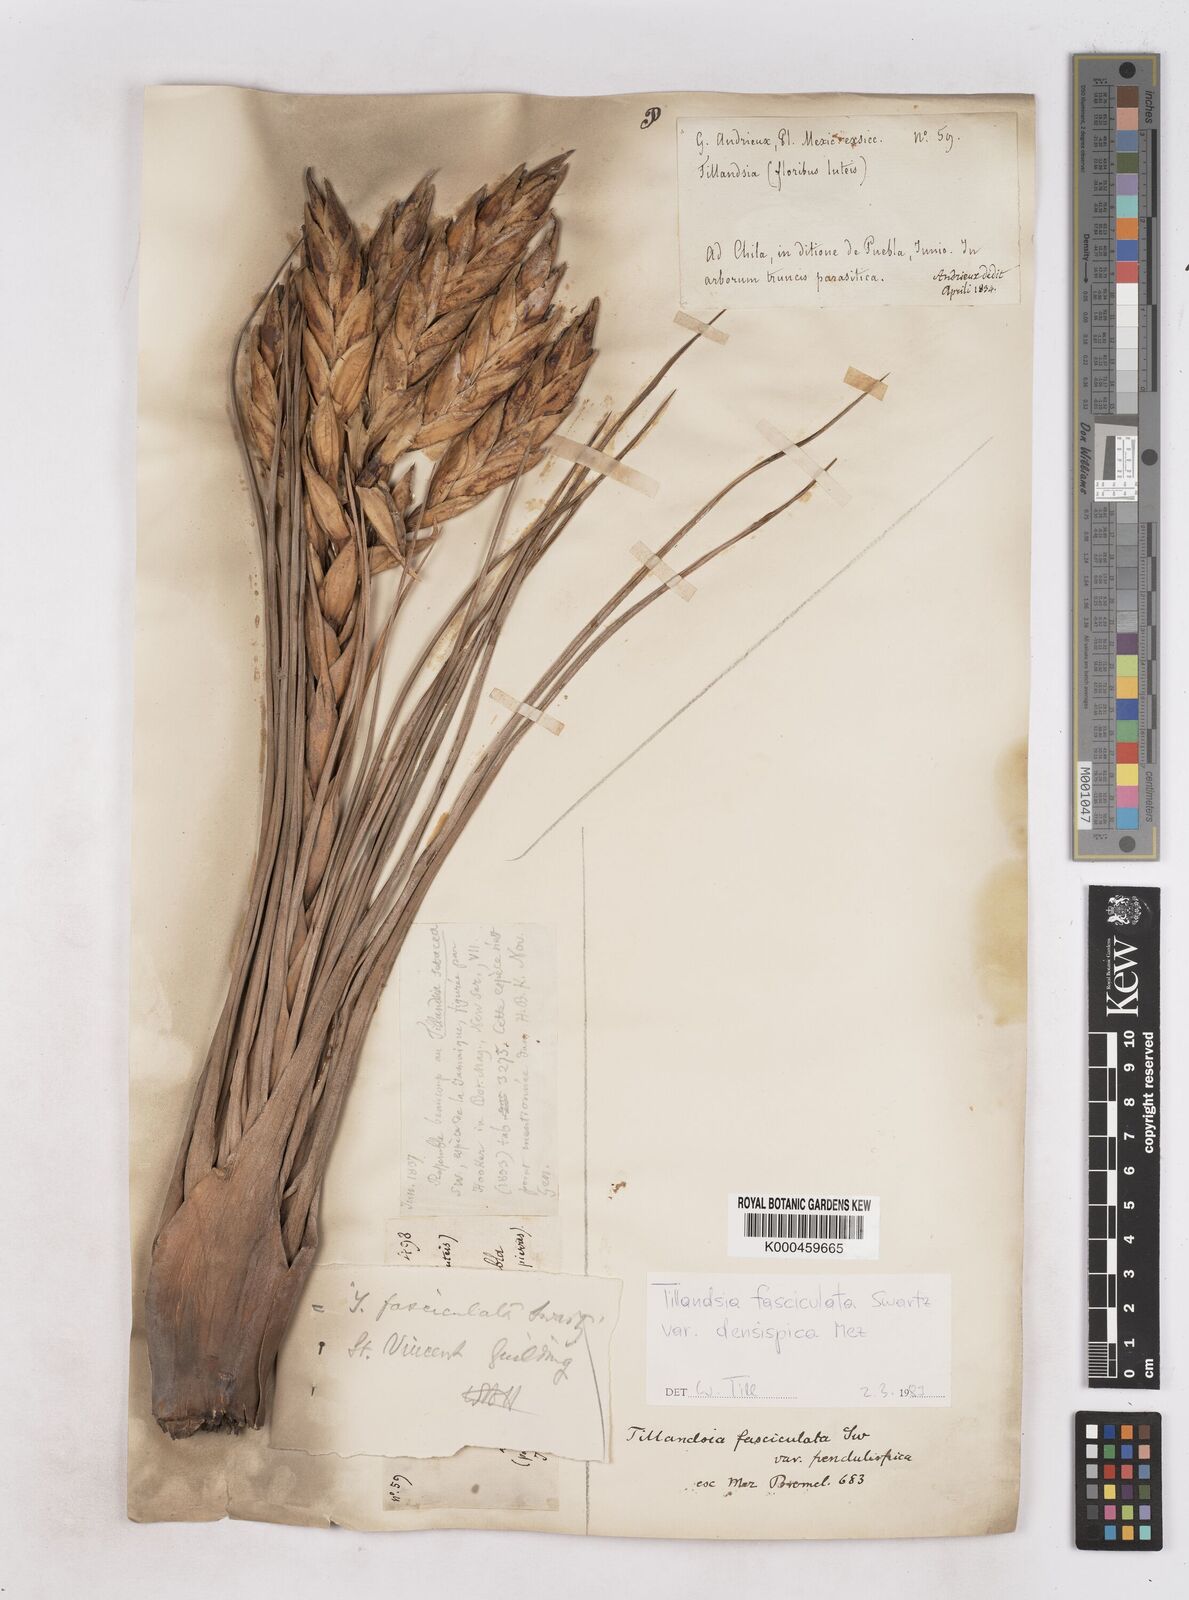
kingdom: Plantae
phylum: Tracheophyta
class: Liliopsida
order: Poales
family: Bromeliaceae
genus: Tillandsia
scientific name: Tillandsia fasciculata
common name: Giant airplant
